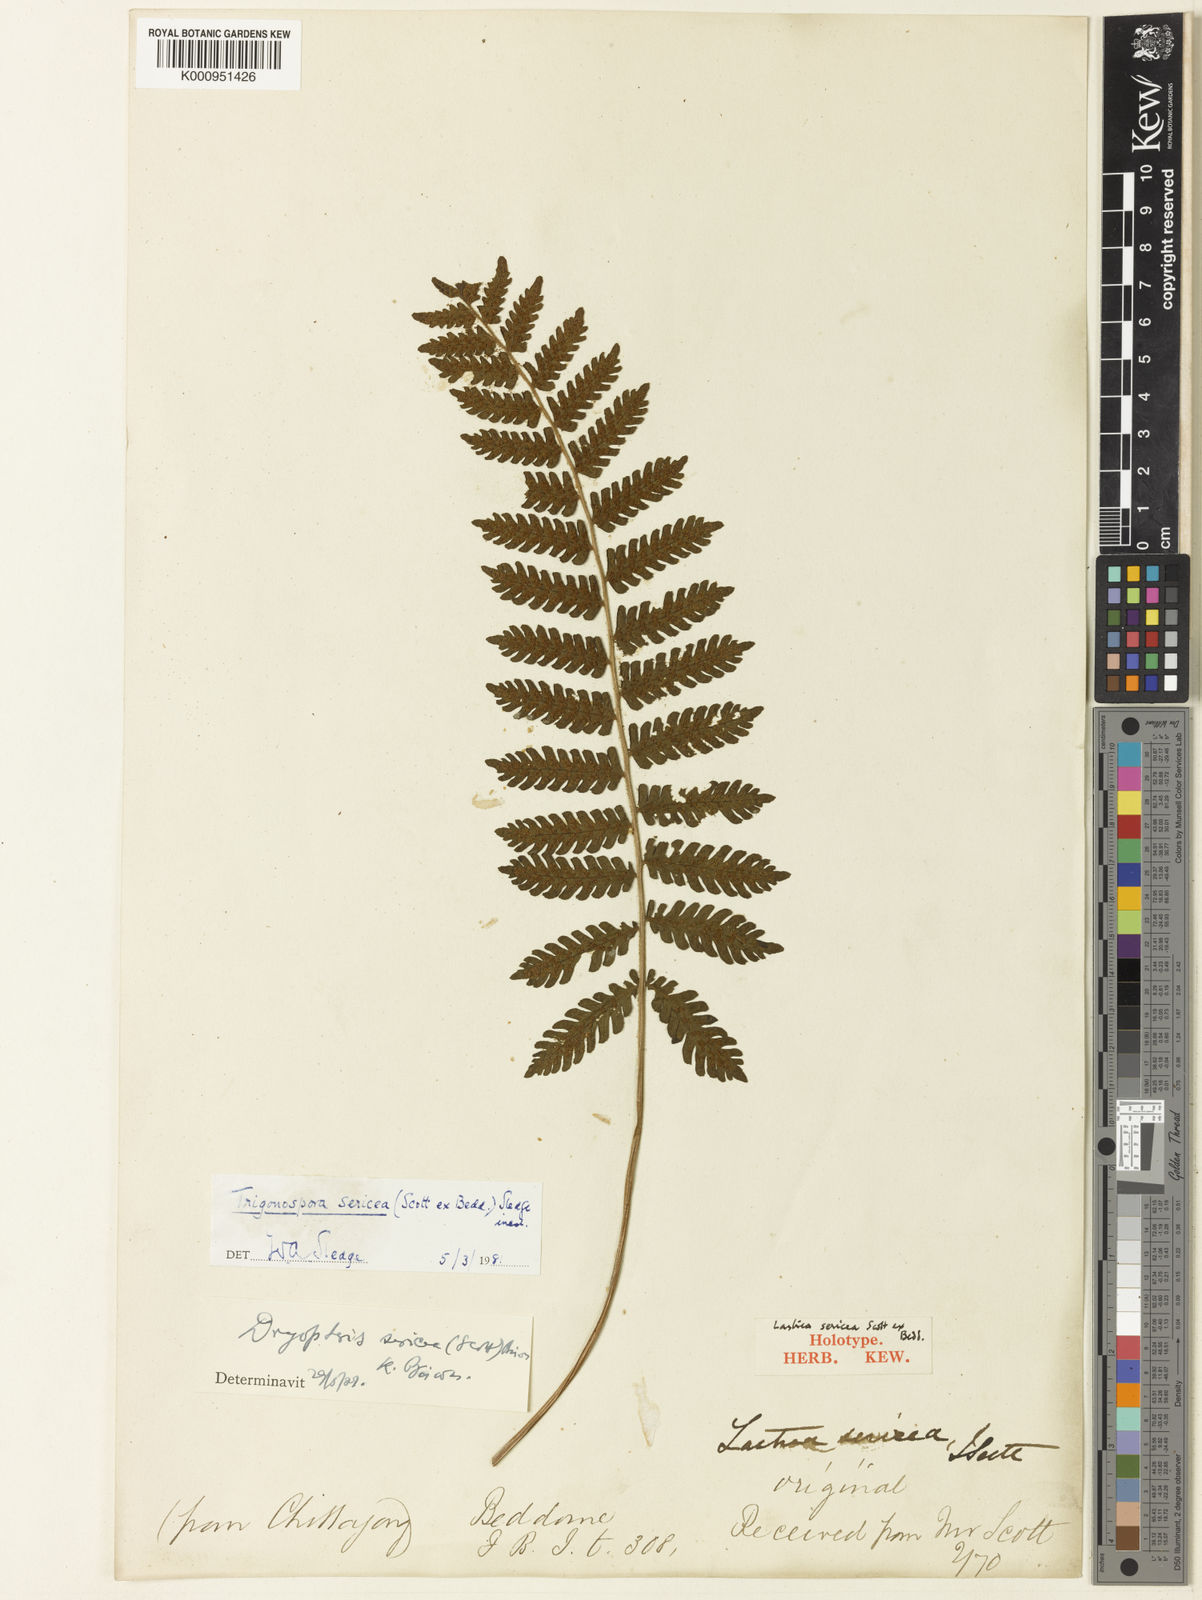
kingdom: Plantae
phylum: Tracheophyta
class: Polypodiopsida
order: Polypodiales
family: Thelypteridaceae
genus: Trigonospora
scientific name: Trigonospora tenera
